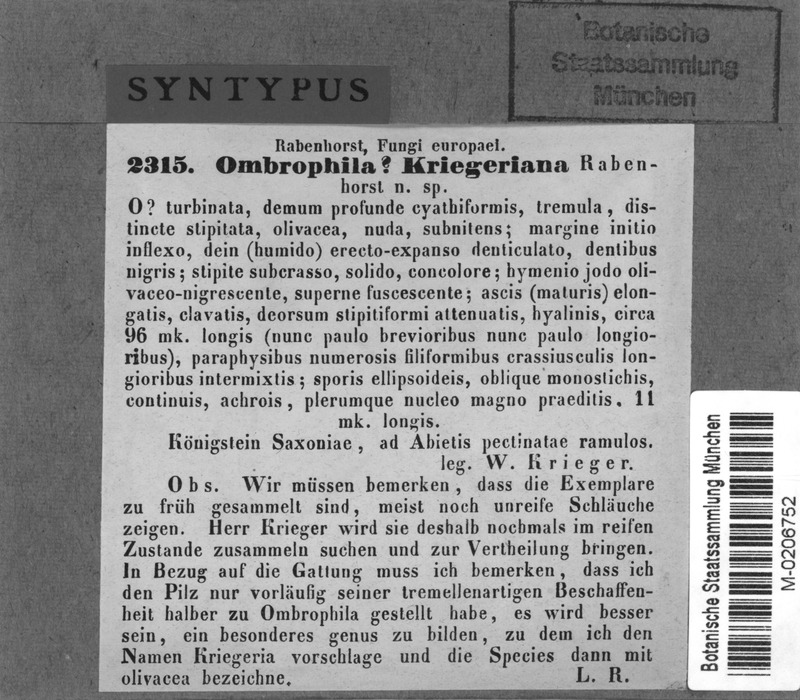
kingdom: Fungi
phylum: Ascomycota
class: Leotiomycetes
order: Helotiales
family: Rutstroemiaceae
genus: Rutstroemia
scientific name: Rutstroemia elatina
